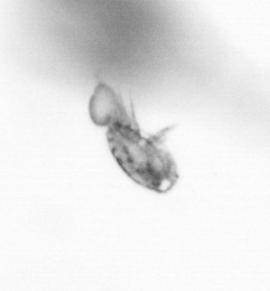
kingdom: Animalia
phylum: Arthropoda
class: Copepoda
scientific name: Copepoda
